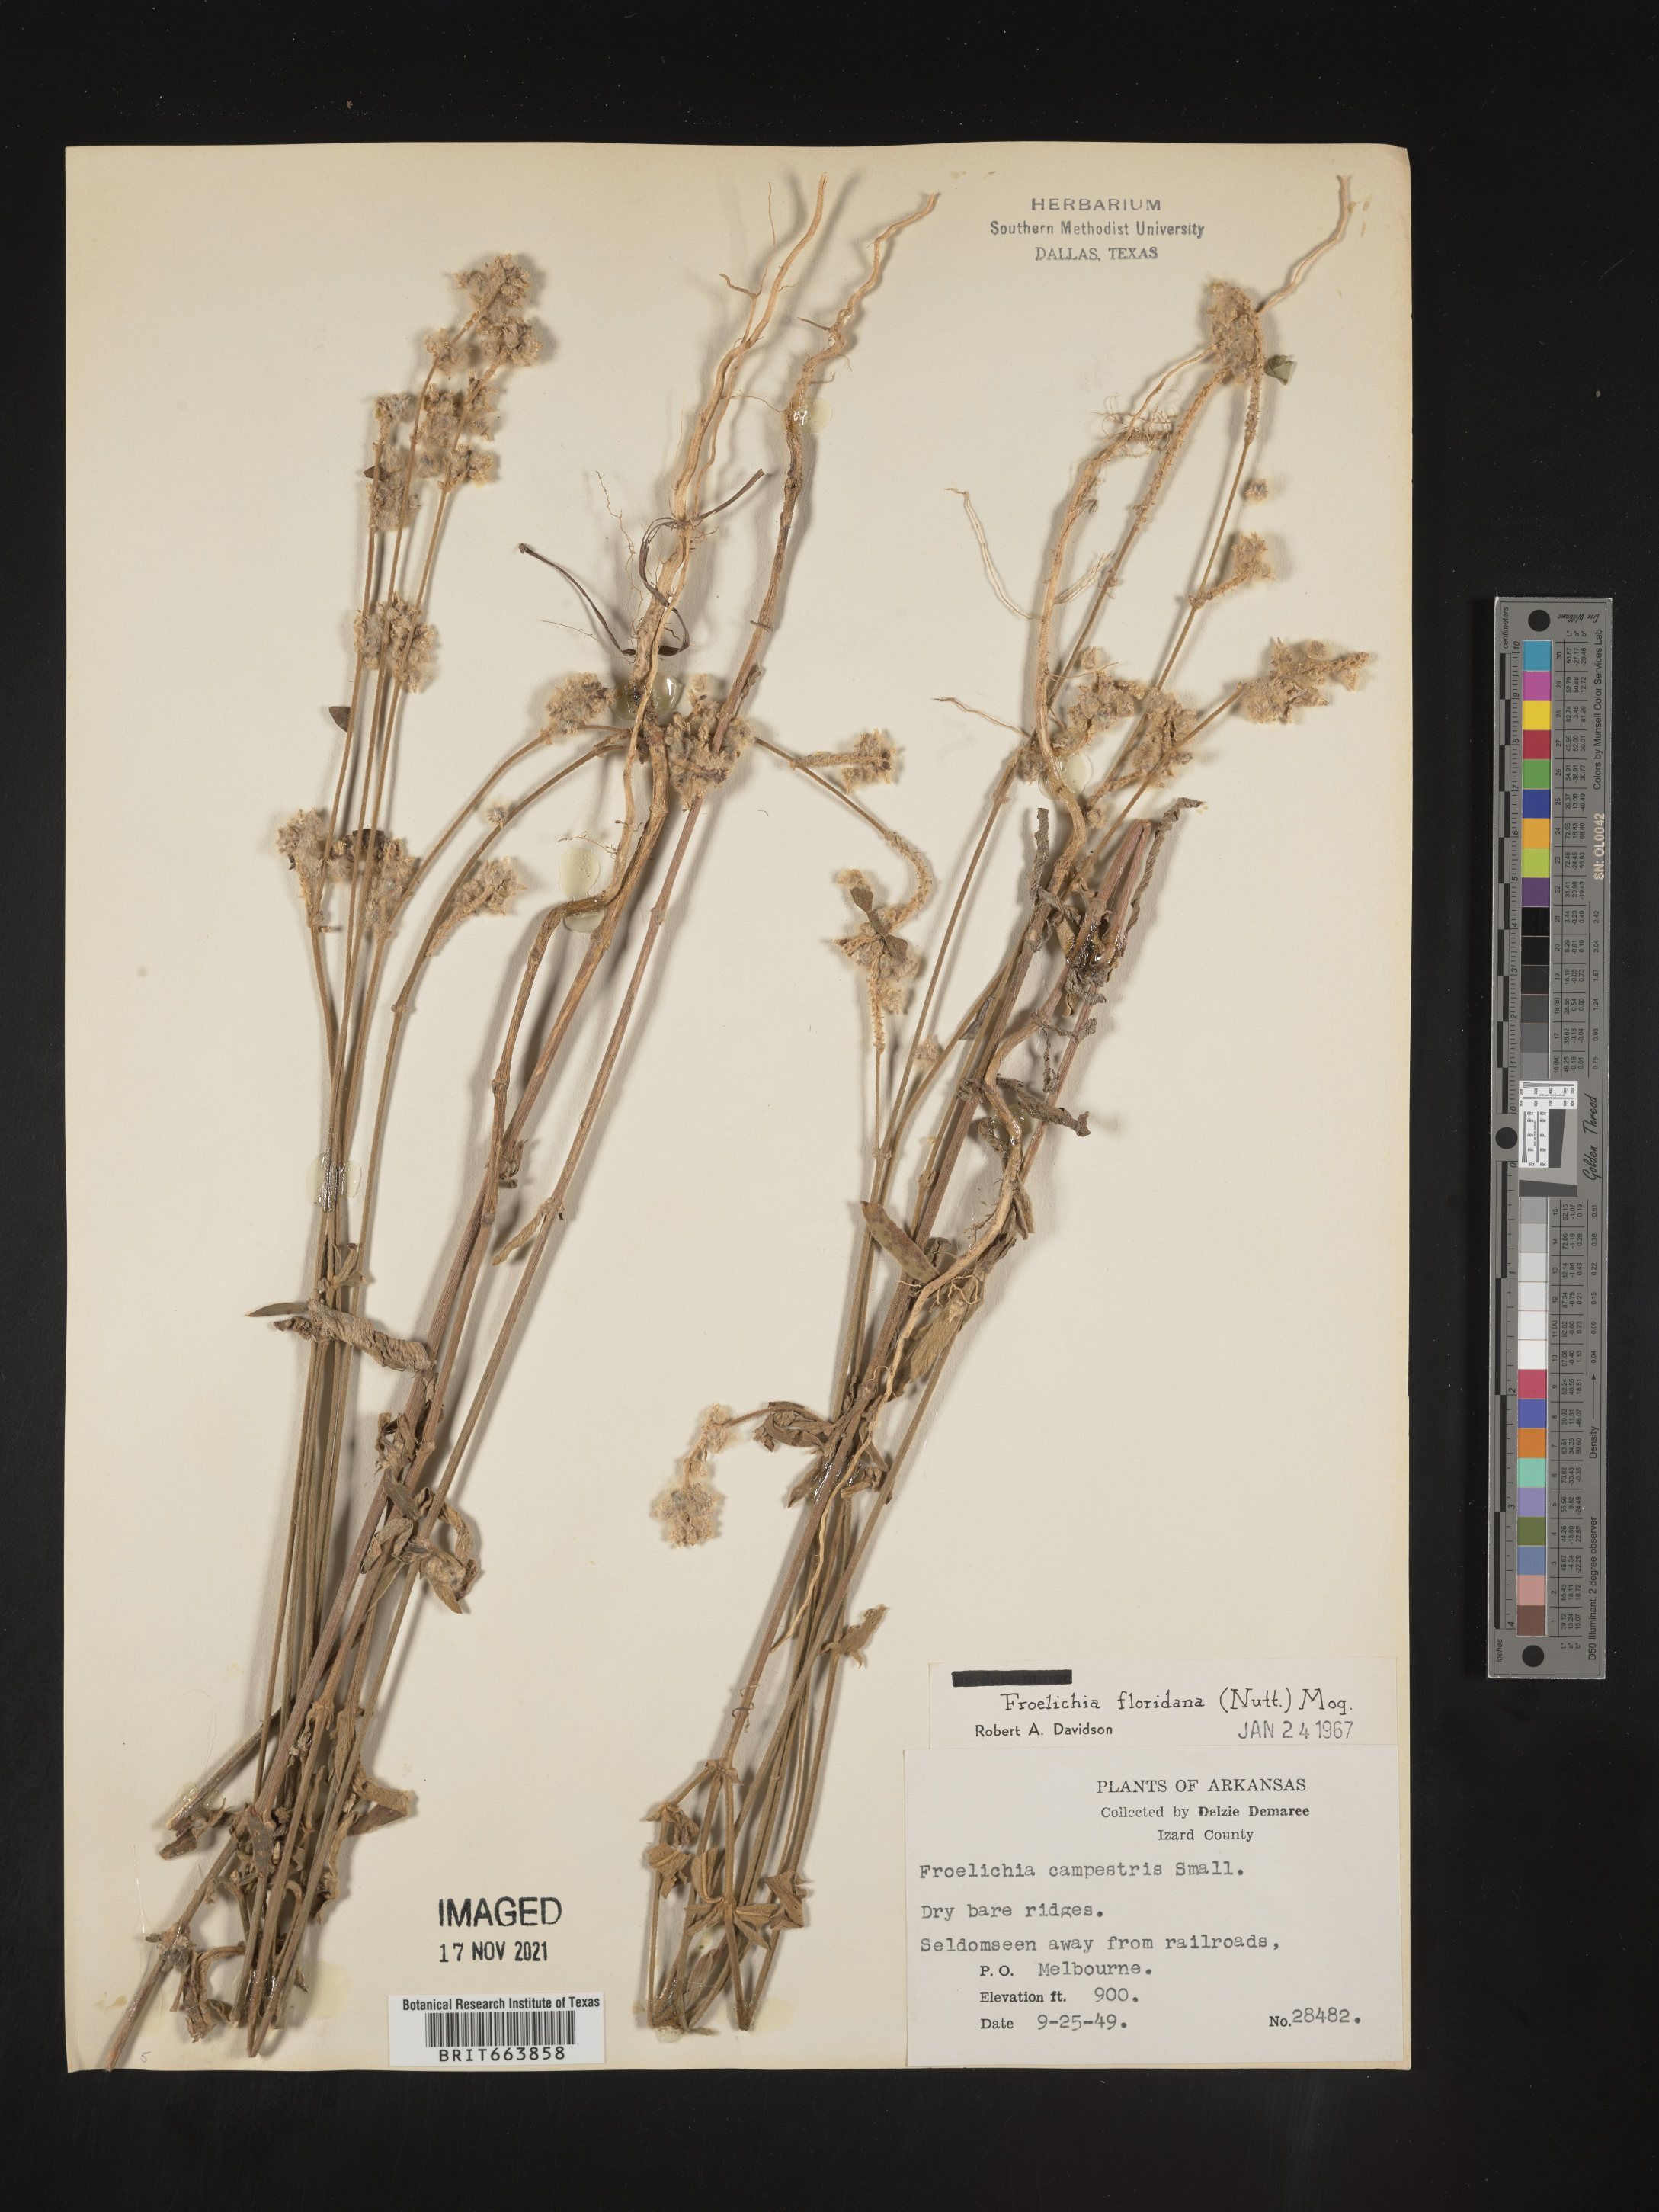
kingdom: Plantae
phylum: Tracheophyta
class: Magnoliopsida
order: Caryophyllales
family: Amaranthaceae
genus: Froelichia
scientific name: Froelichia floridana
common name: Florida snake-cotton
